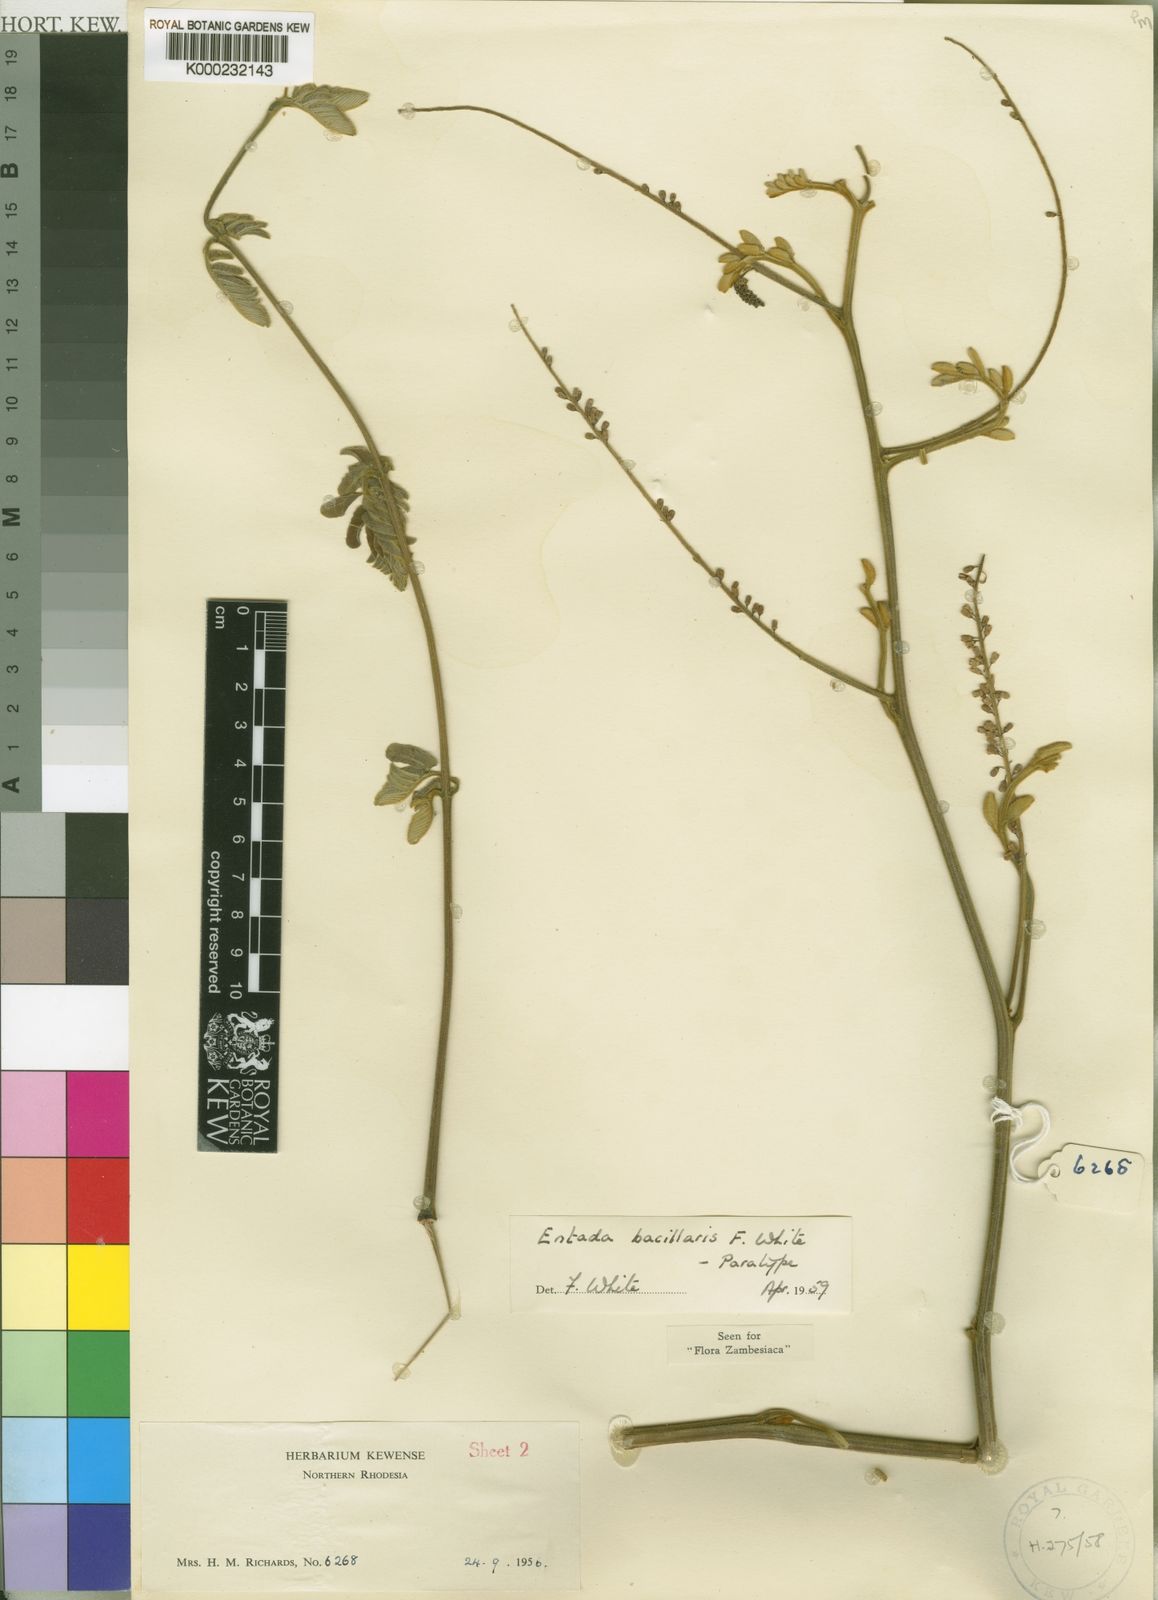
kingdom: Plantae
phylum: Tracheophyta
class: Magnoliopsida
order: Fabales
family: Fabaceae
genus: Entada
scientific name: Entada bacillaris
